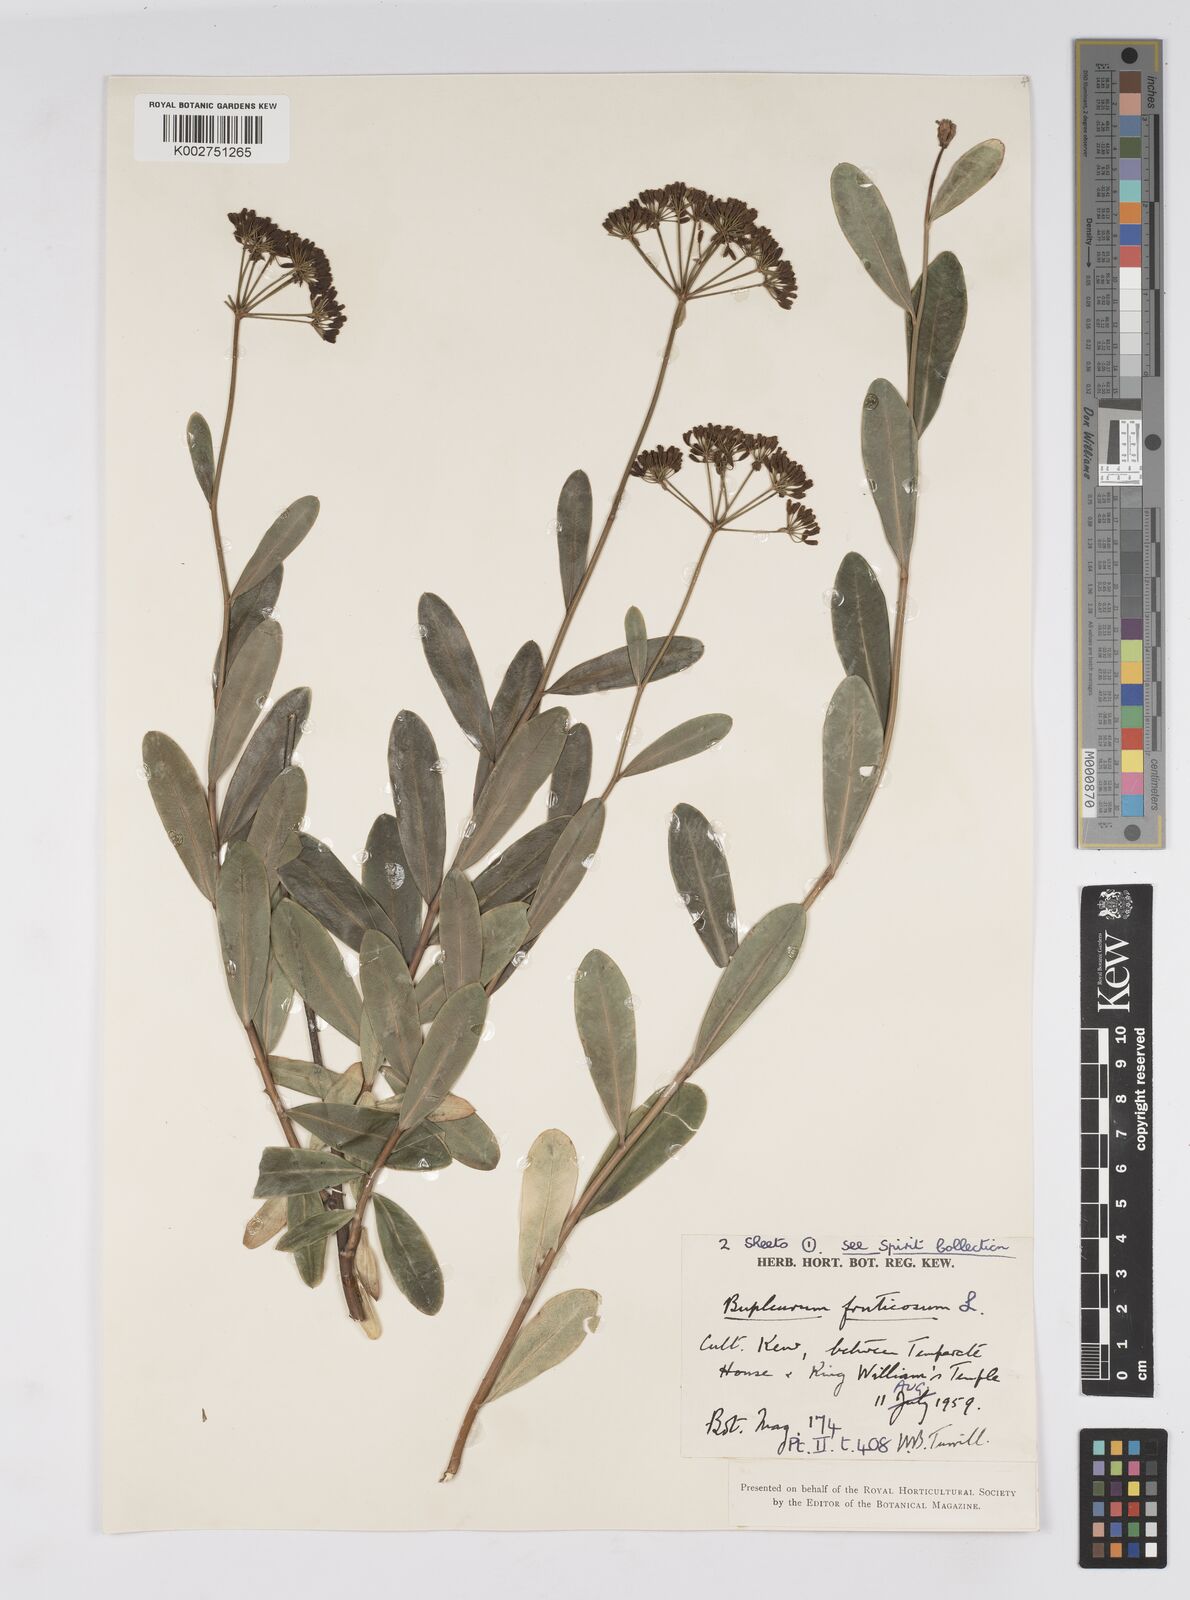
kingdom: Plantae
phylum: Tracheophyta
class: Magnoliopsida
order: Apiales
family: Apiaceae
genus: Bupleurum
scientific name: Bupleurum fruticosum
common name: Shrubby hare's-ear
